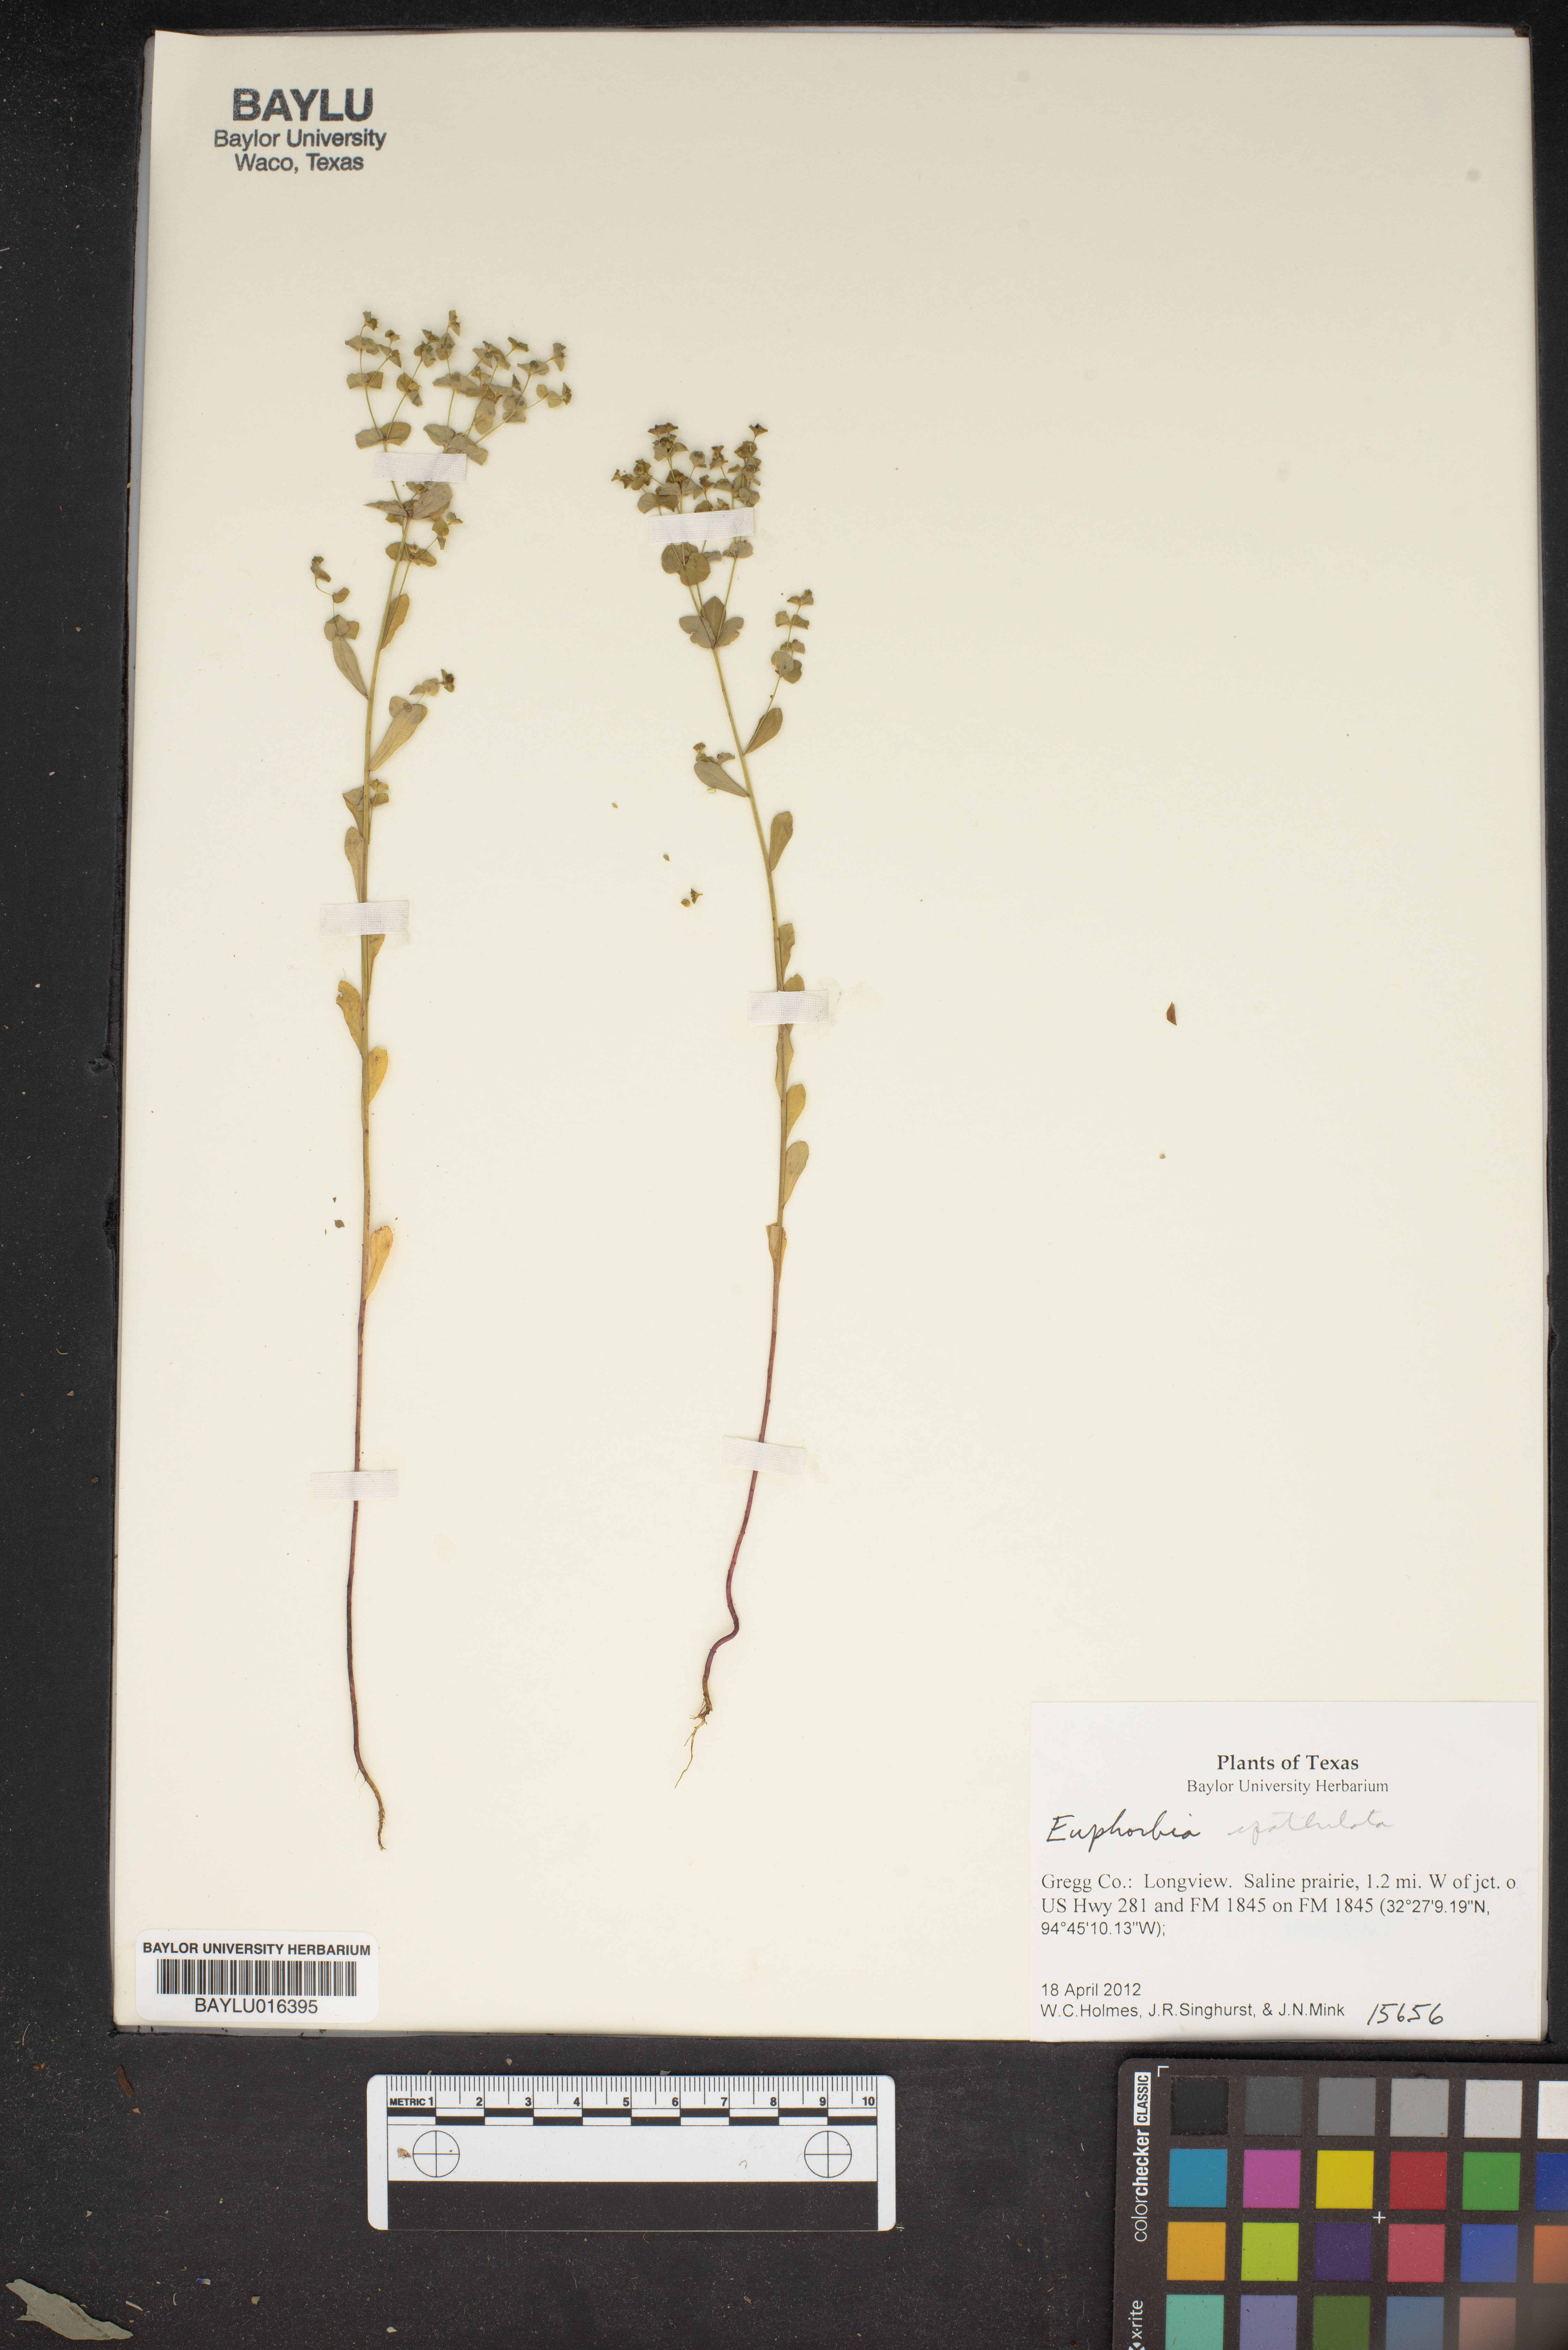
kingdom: Plantae
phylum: Tracheophyta
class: Magnoliopsida
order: Malpighiales
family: Euphorbiaceae
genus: Euphorbia
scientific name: Euphorbia spathulata
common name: Blunt spurge
